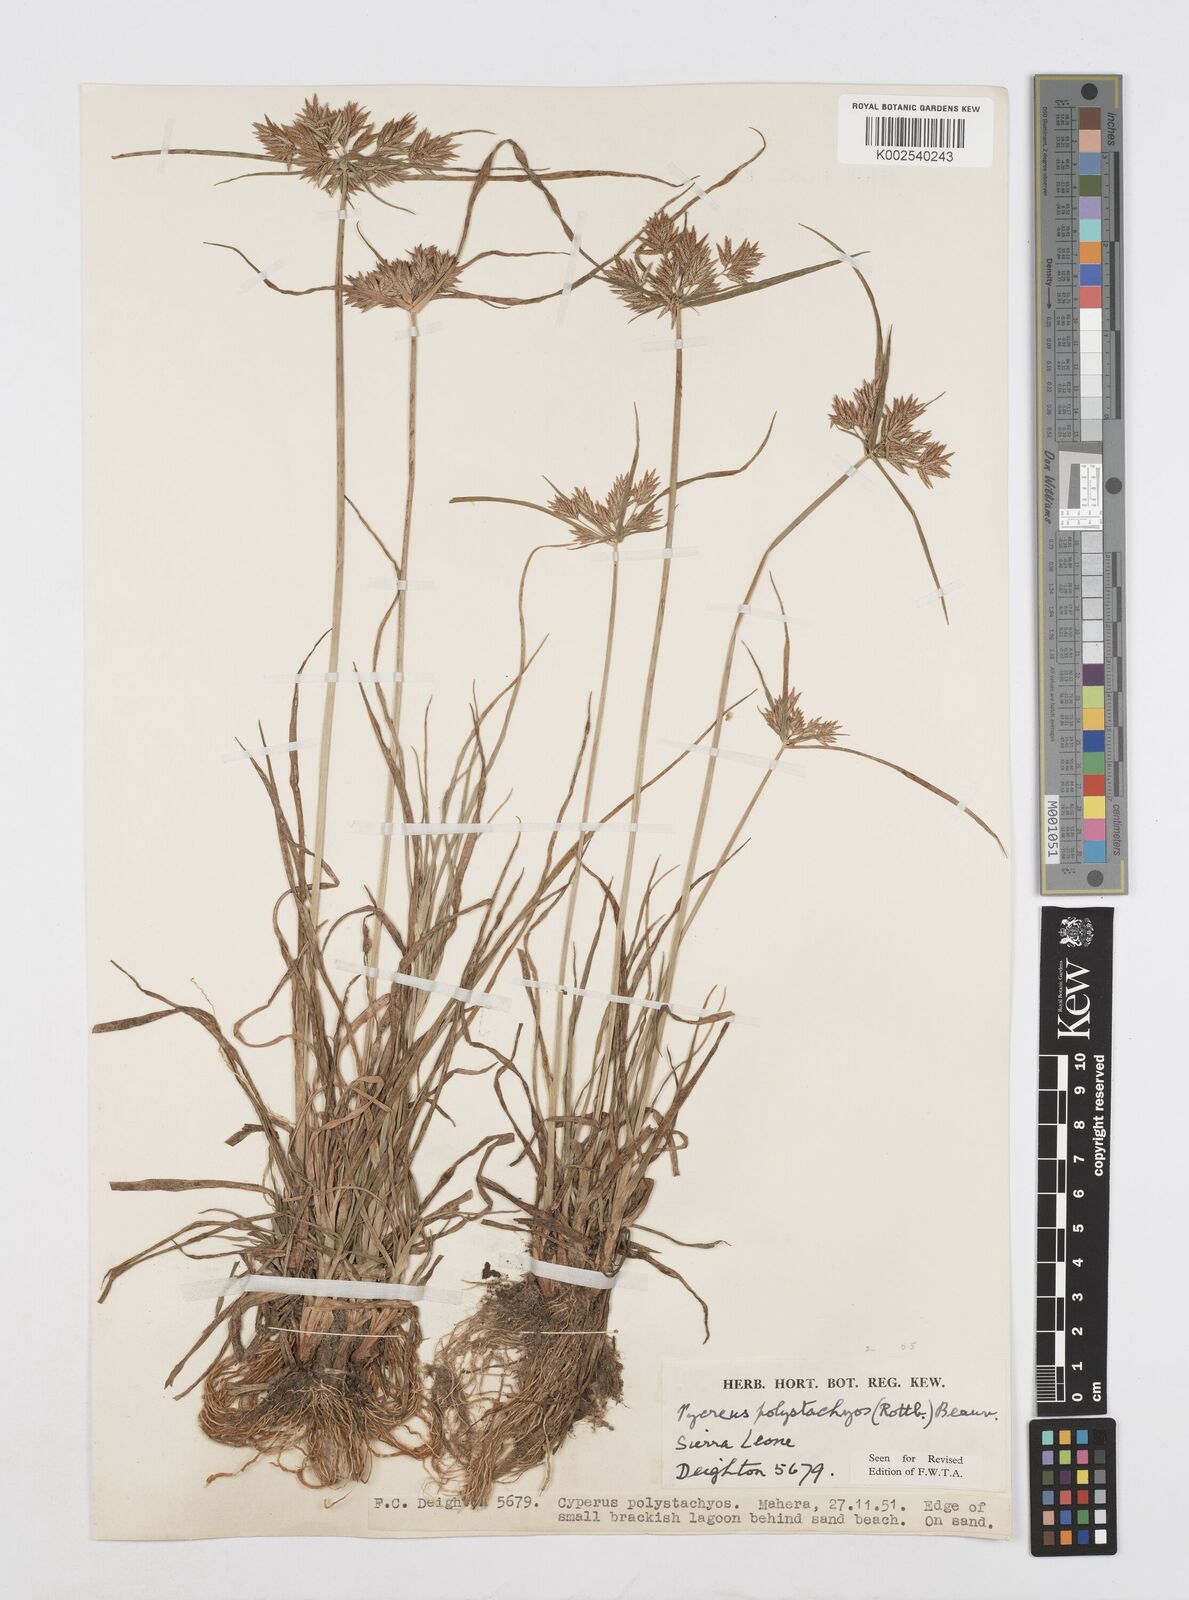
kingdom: Plantae
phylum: Tracheophyta
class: Liliopsida
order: Poales
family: Cyperaceae
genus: Cyperus
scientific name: Cyperus polystachyos
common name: Bunchy flat sedge
